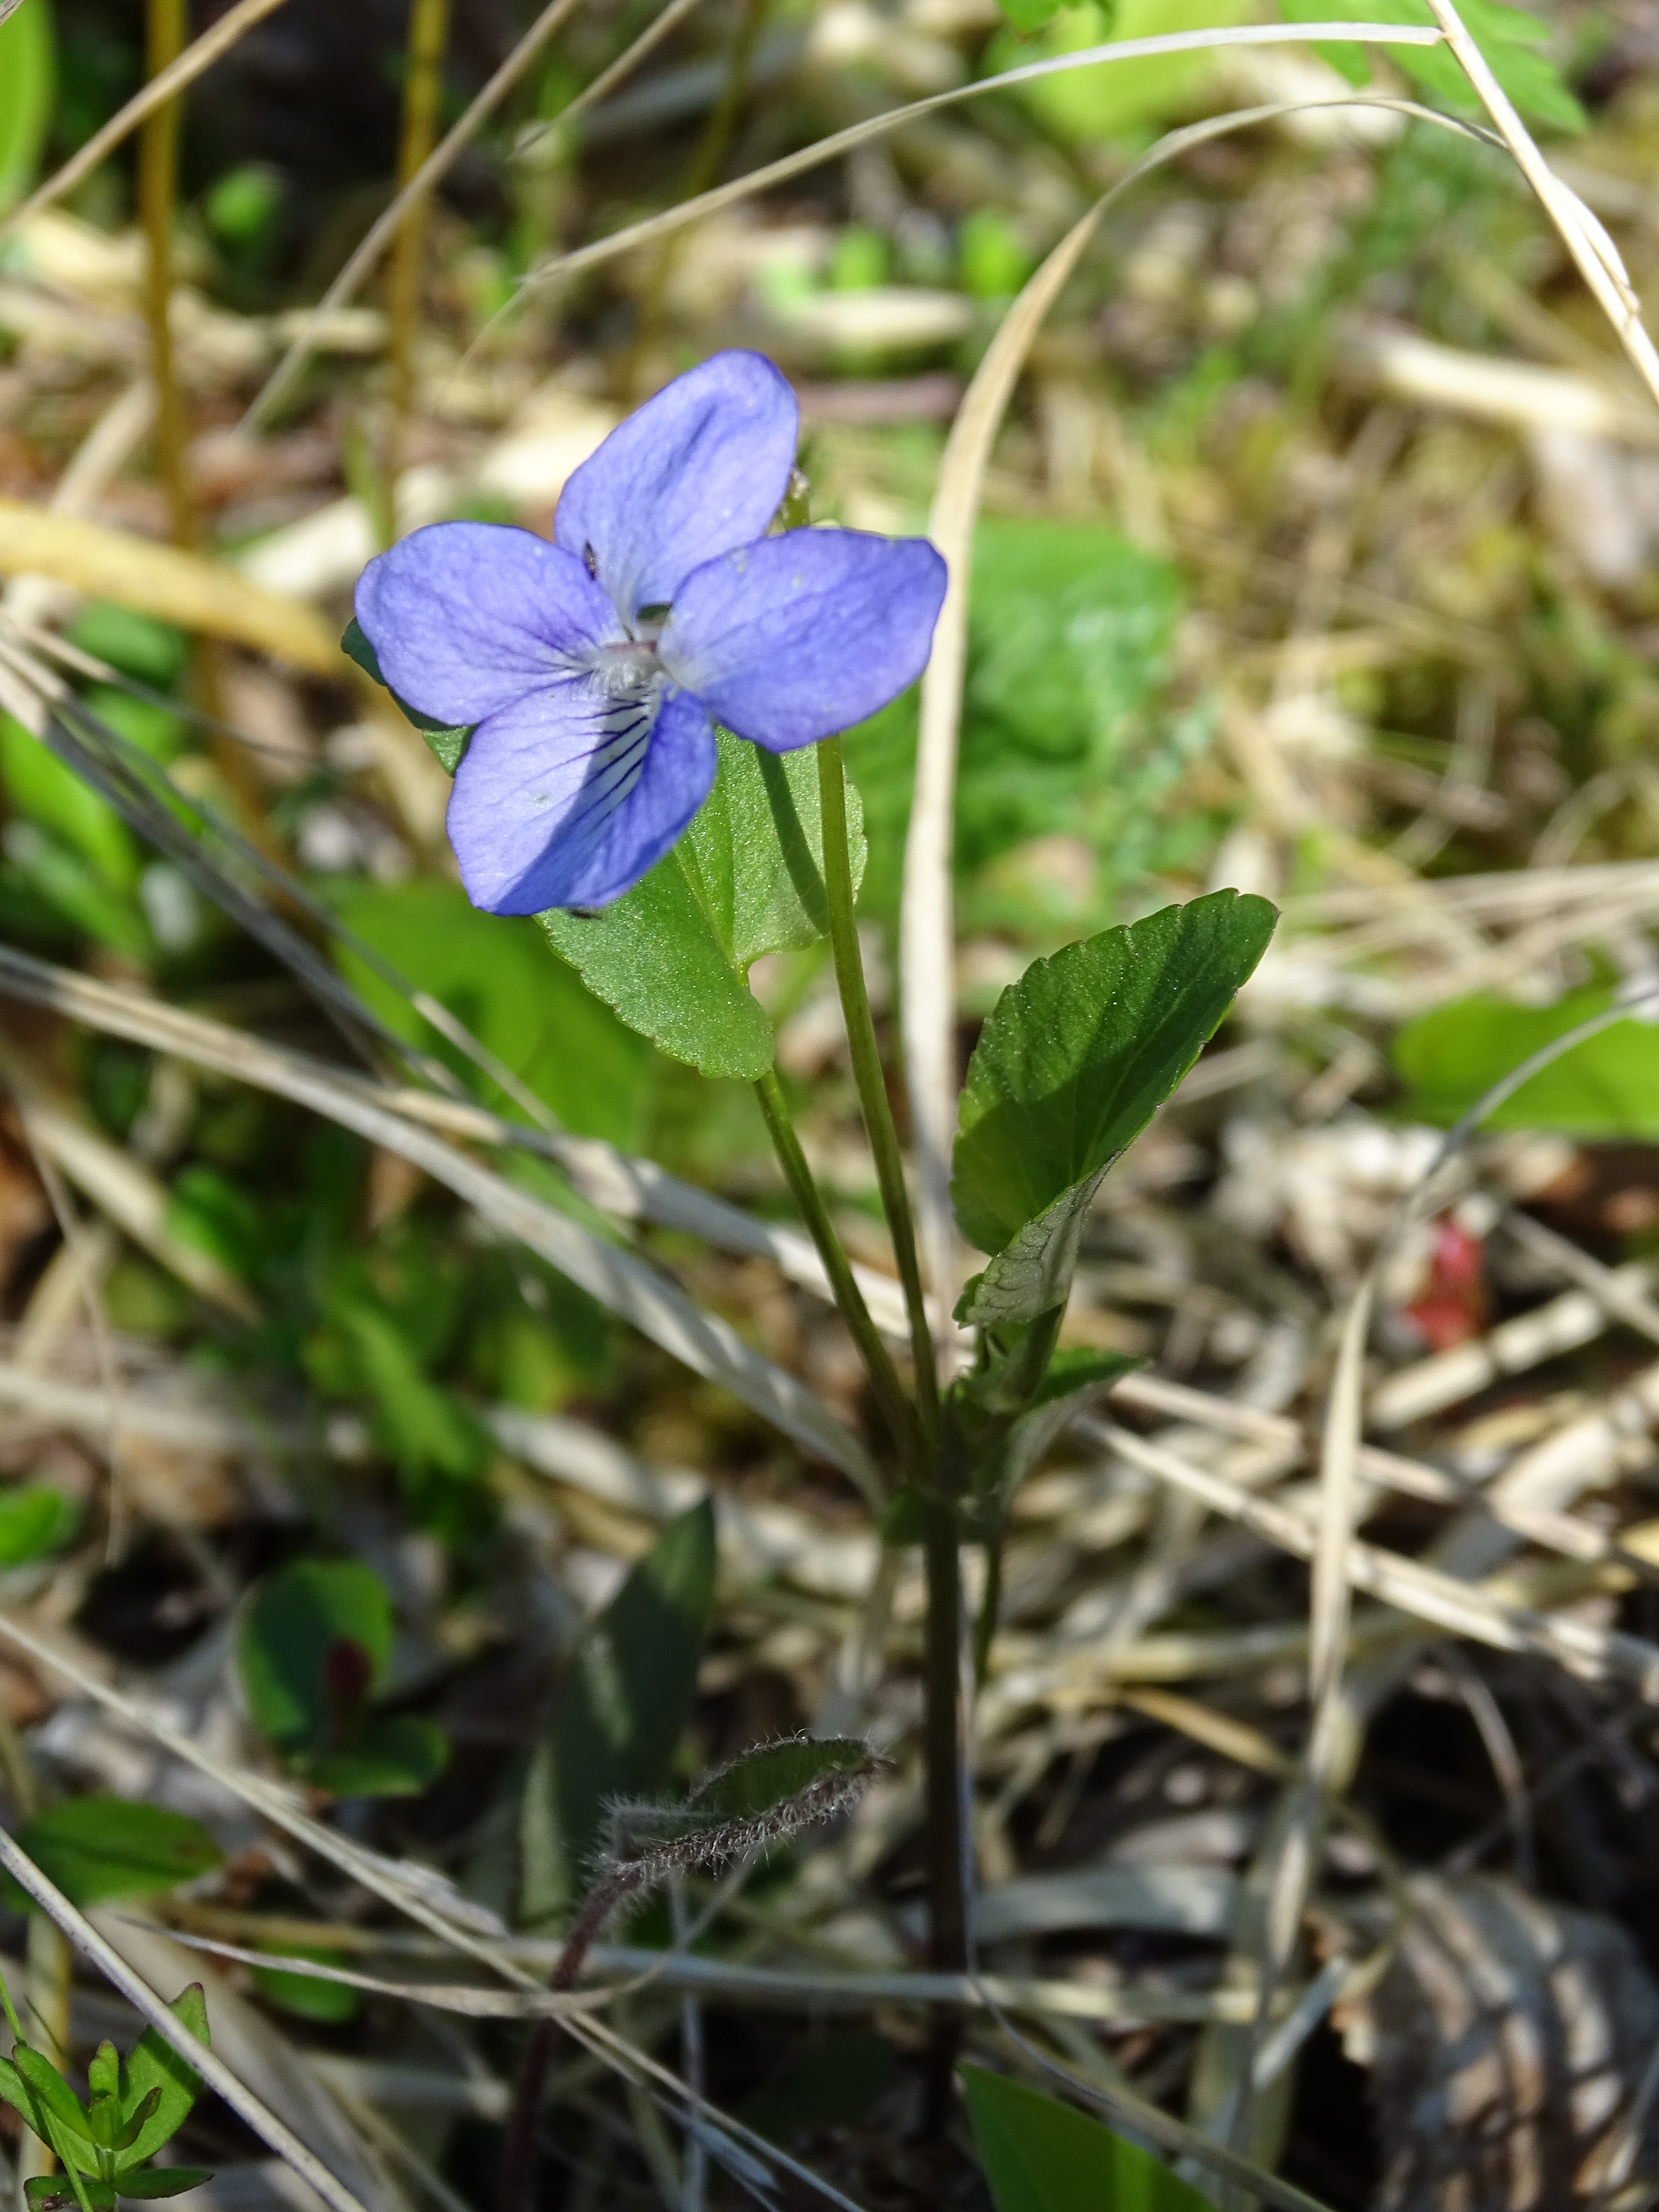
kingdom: Plantae
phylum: Tracheophyta
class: Magnoliopsida
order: Malpighiales
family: Violaceae
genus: Viola
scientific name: Viola ruppii
